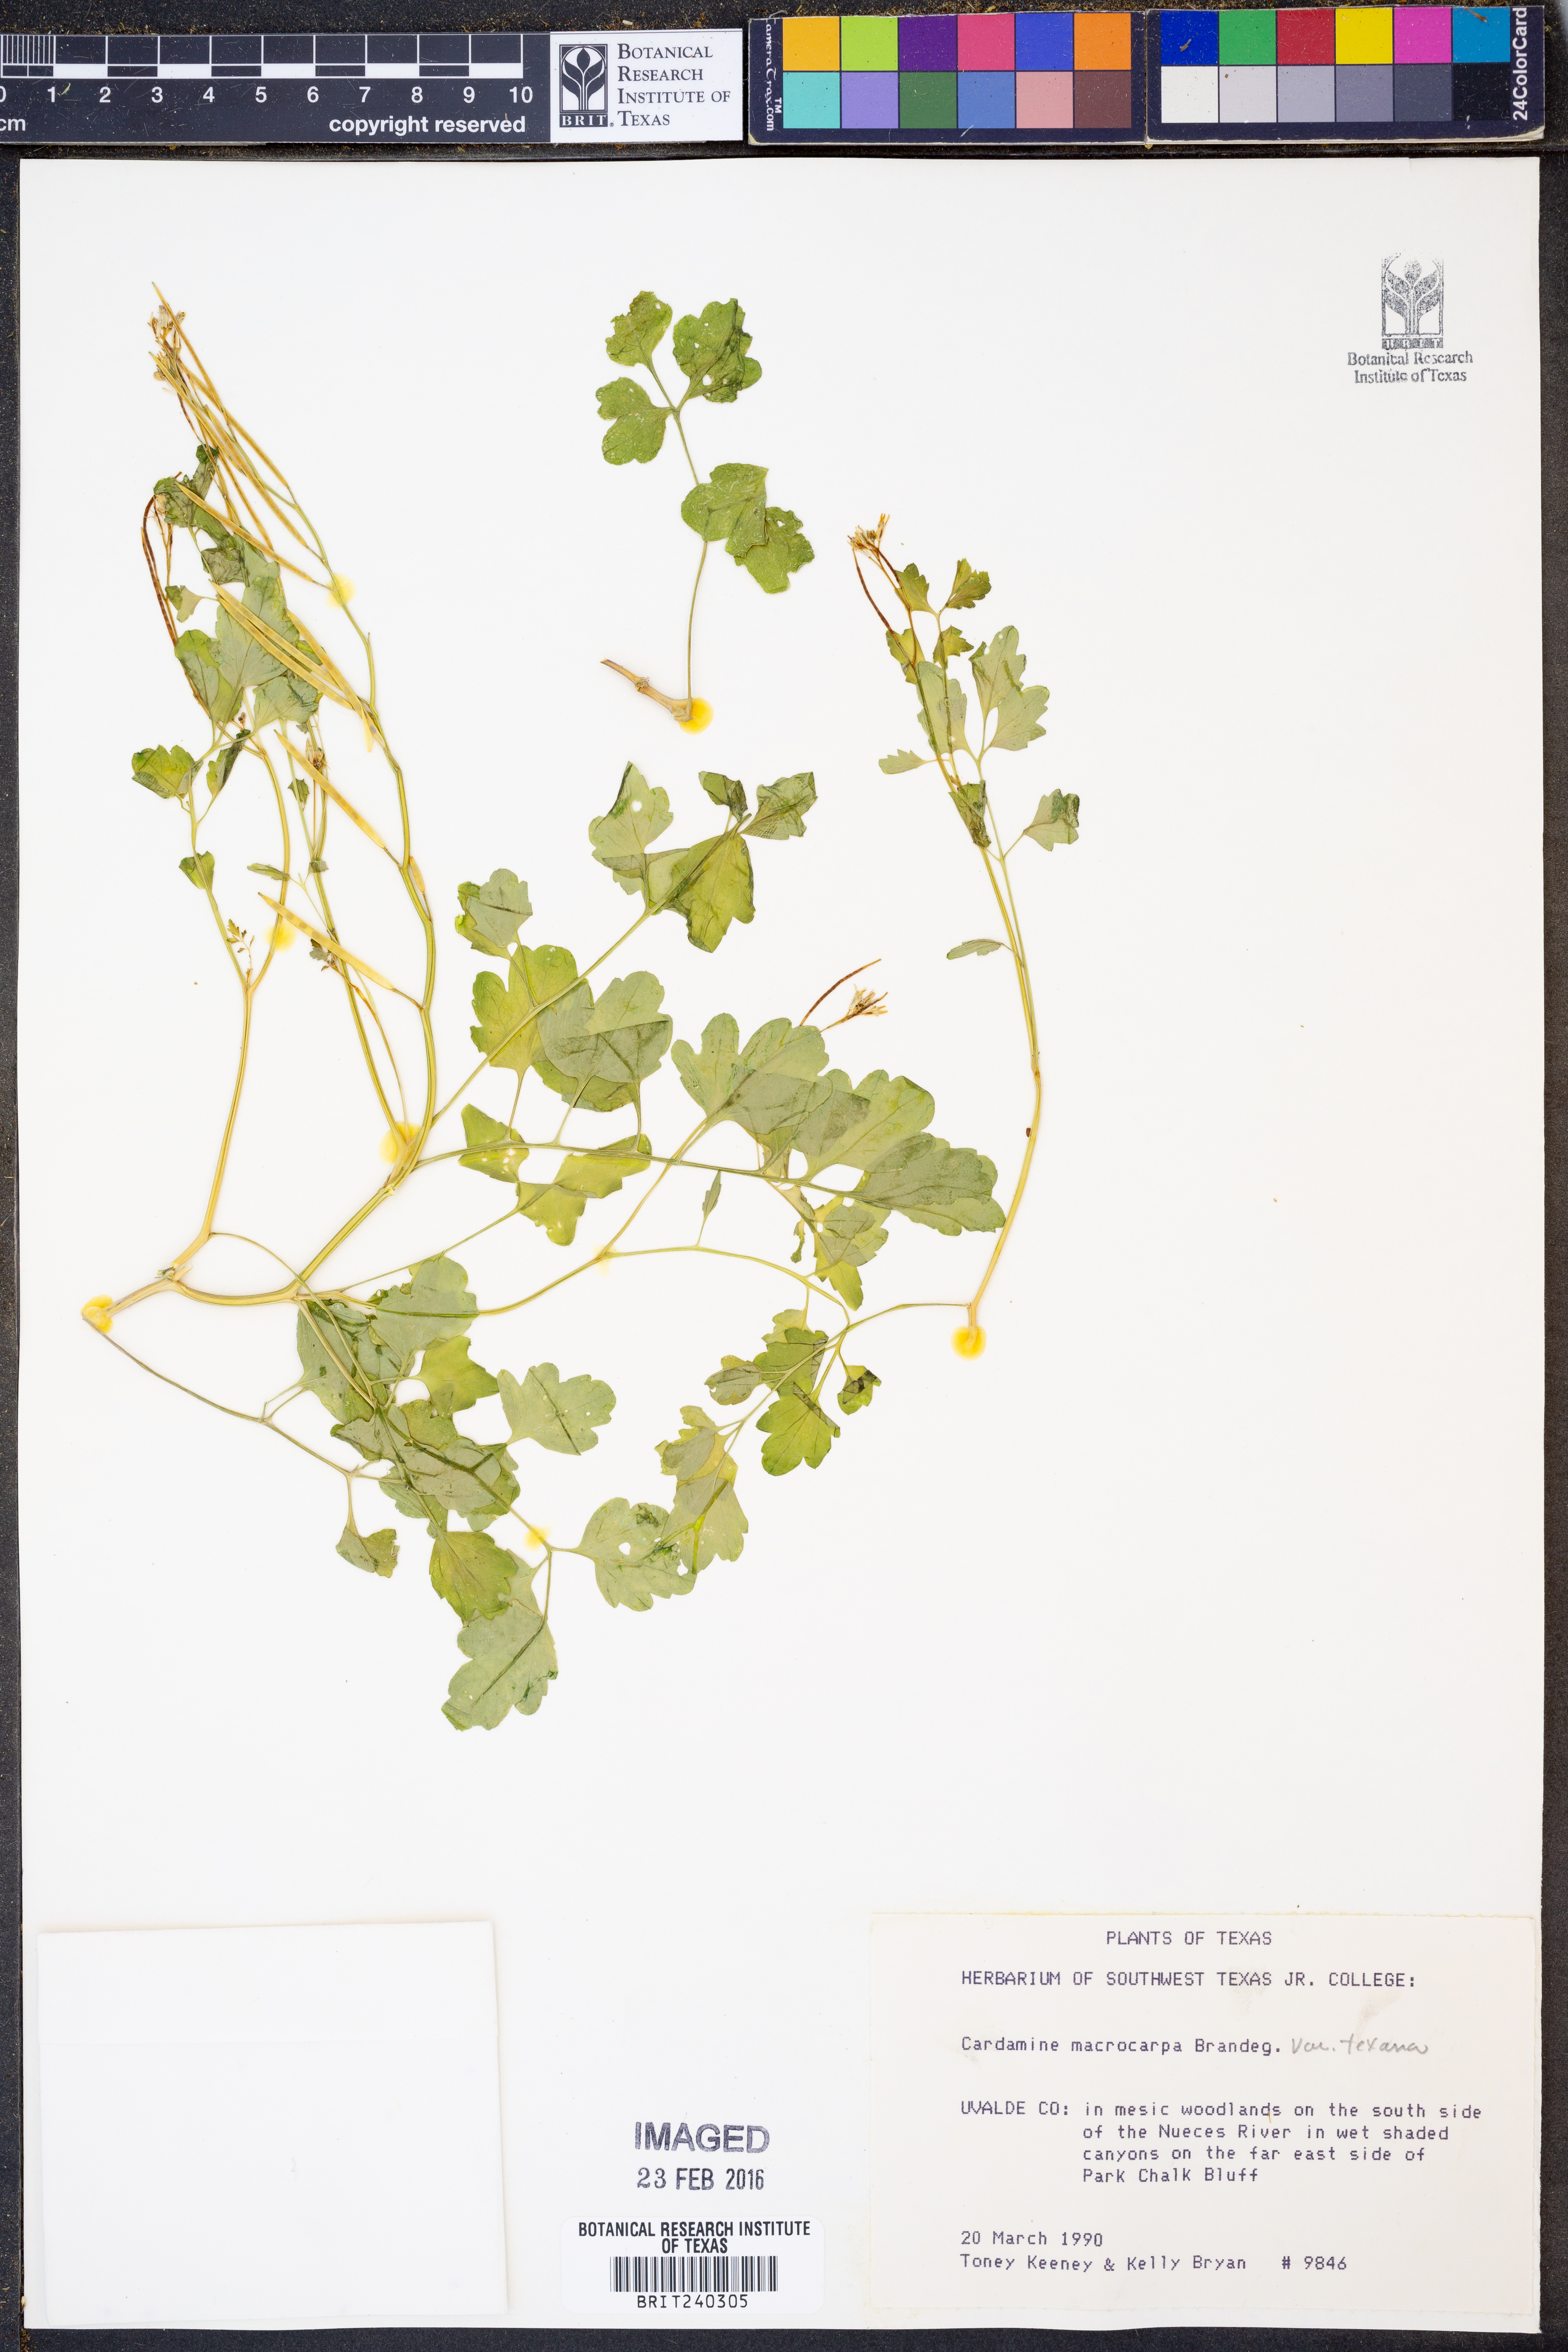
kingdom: Plantae
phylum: Tracheophyta
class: Magnoliopsida
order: Brassicales
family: Brassicaceae
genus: Cardamine
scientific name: Cardamine macrocarpa
